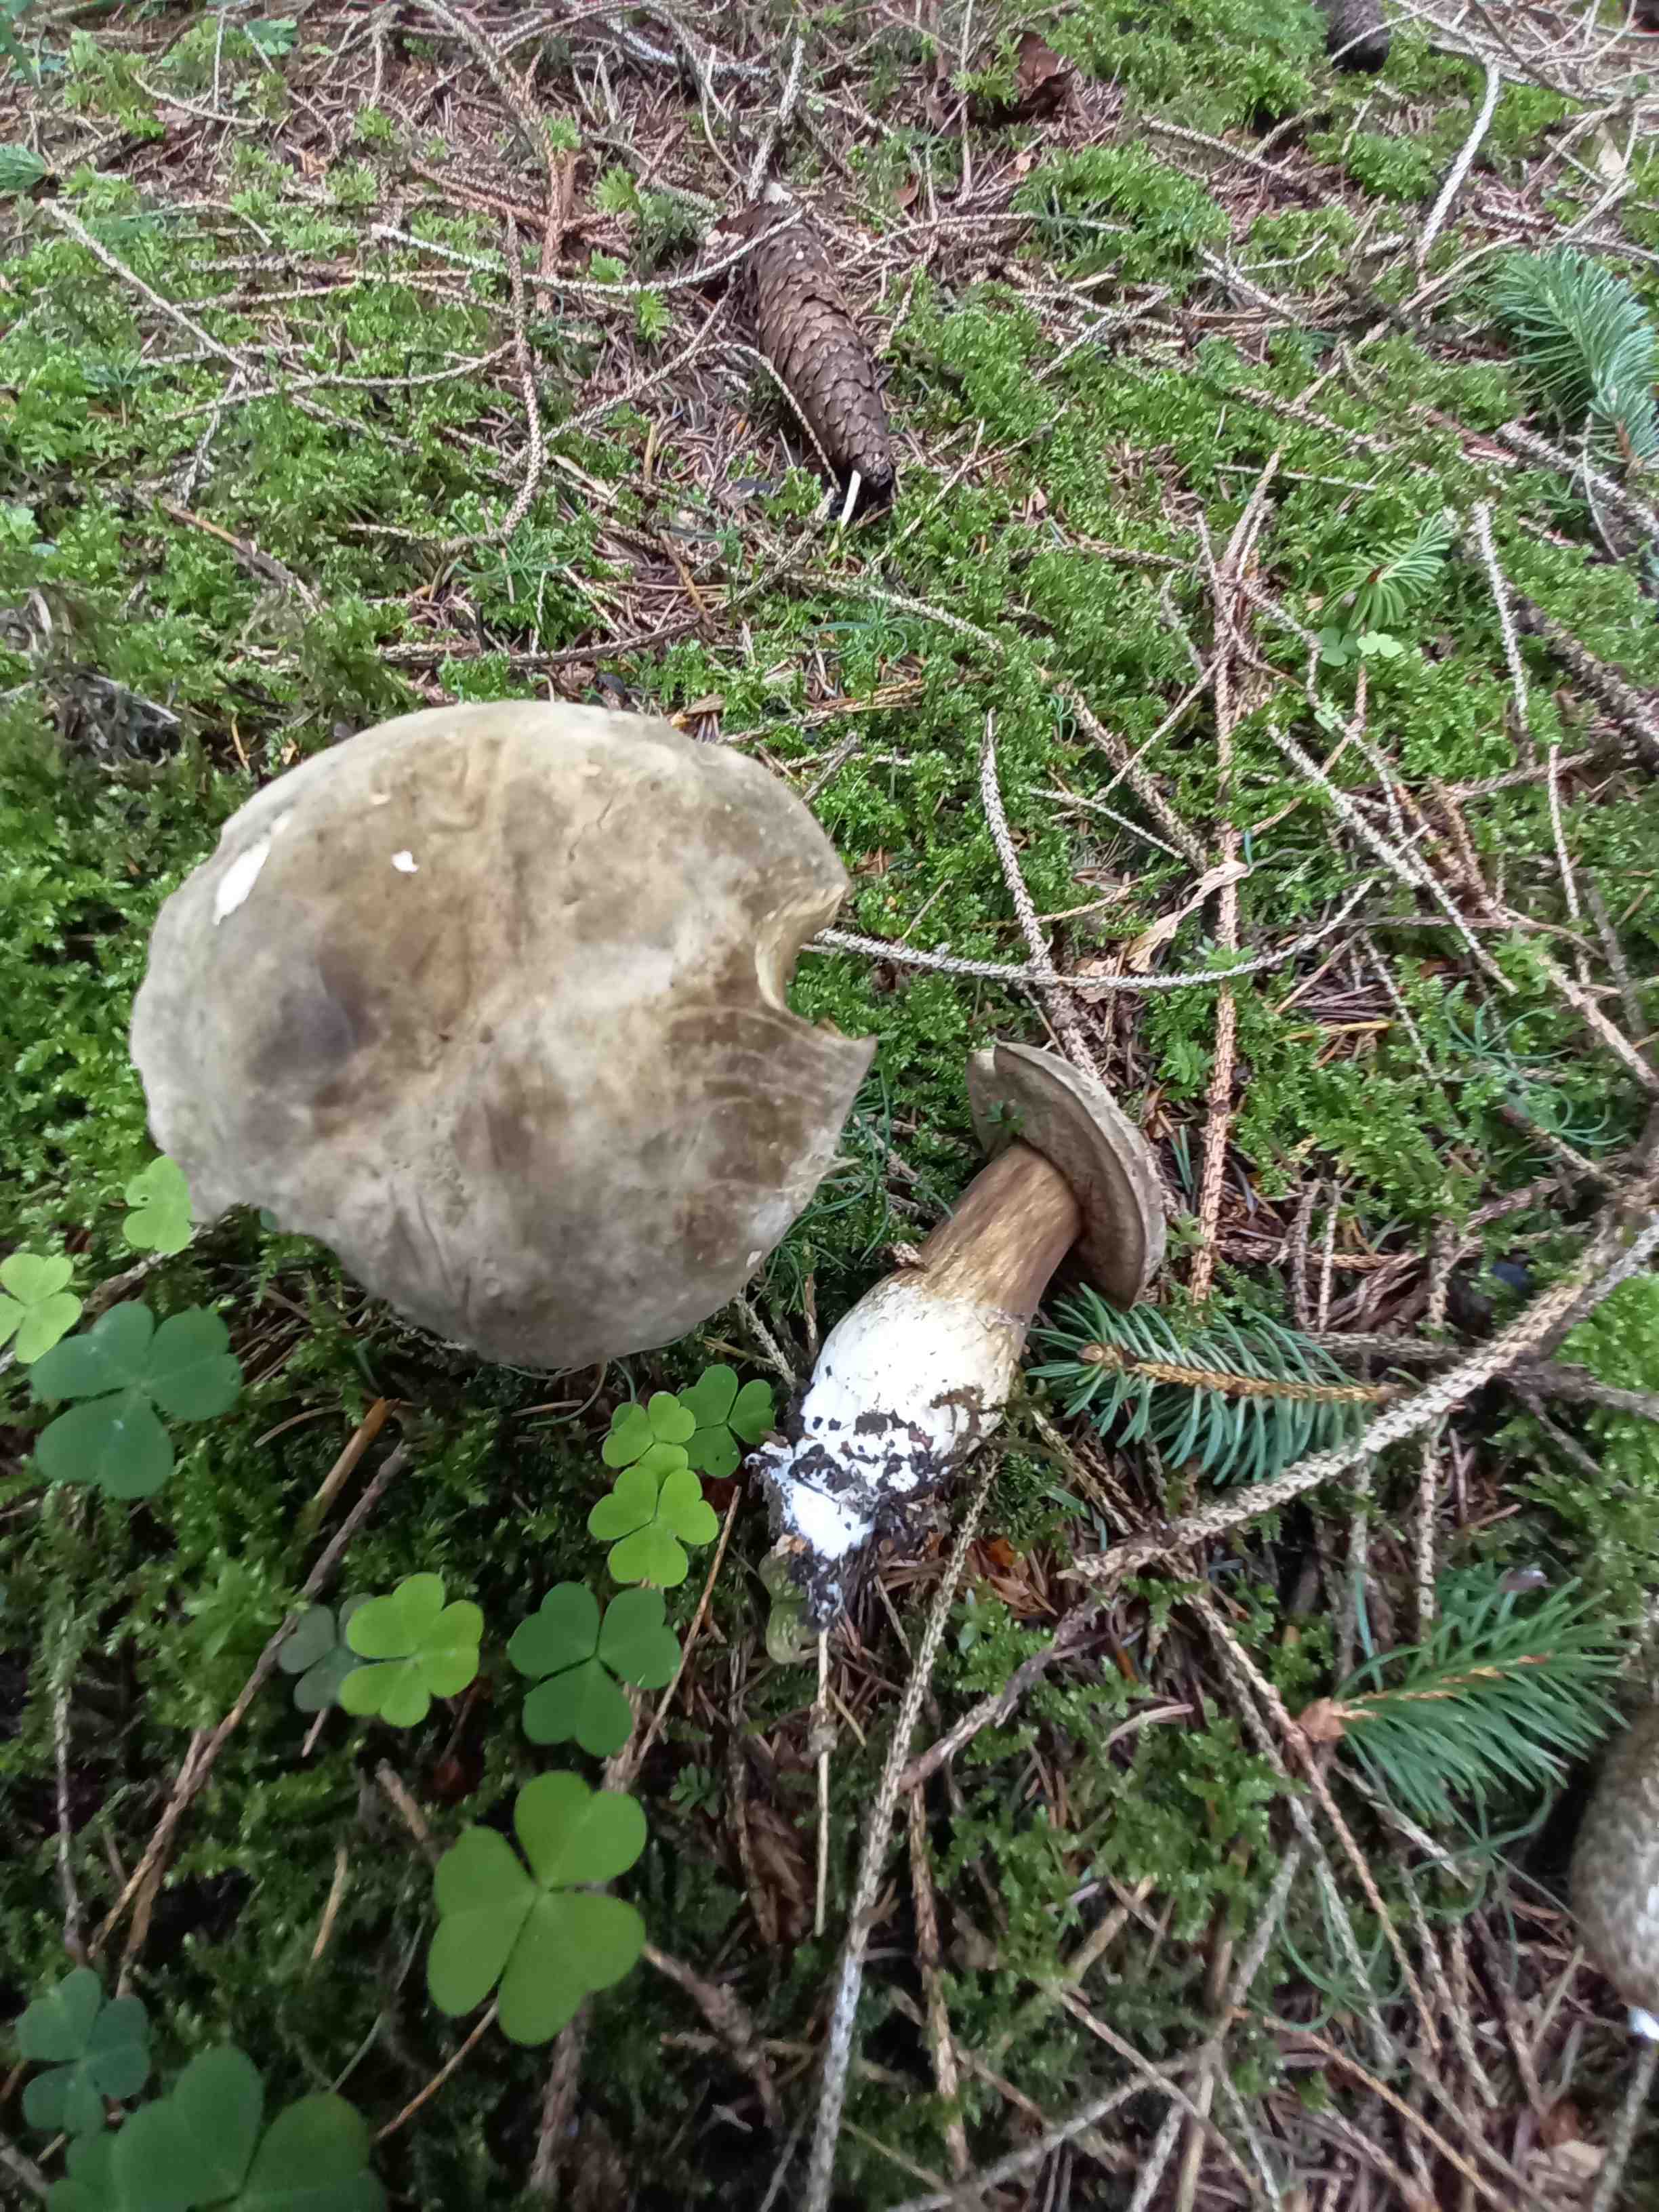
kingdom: Fungi
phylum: Basidiomycota
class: Agaricomycetes
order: Boletales
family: Boletaceae
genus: Porphyrellus
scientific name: Porphyrellus porphyrosporus
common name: sodrørhat
